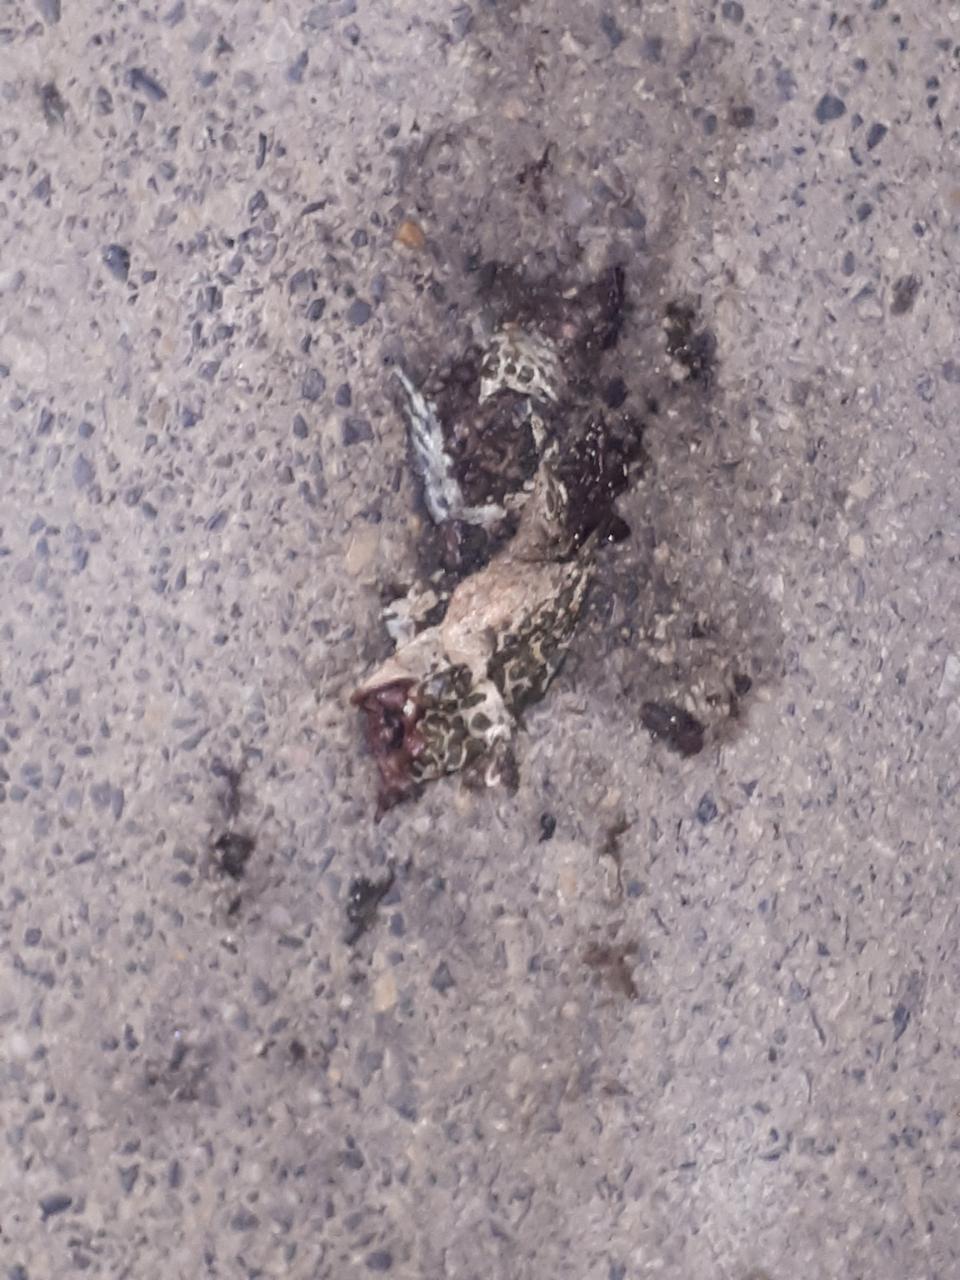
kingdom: Animalia
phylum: Chordata
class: Amphibia
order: Anura
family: Bufonidae
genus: Bufotes
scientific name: Bufotes viridis
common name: European green toad
